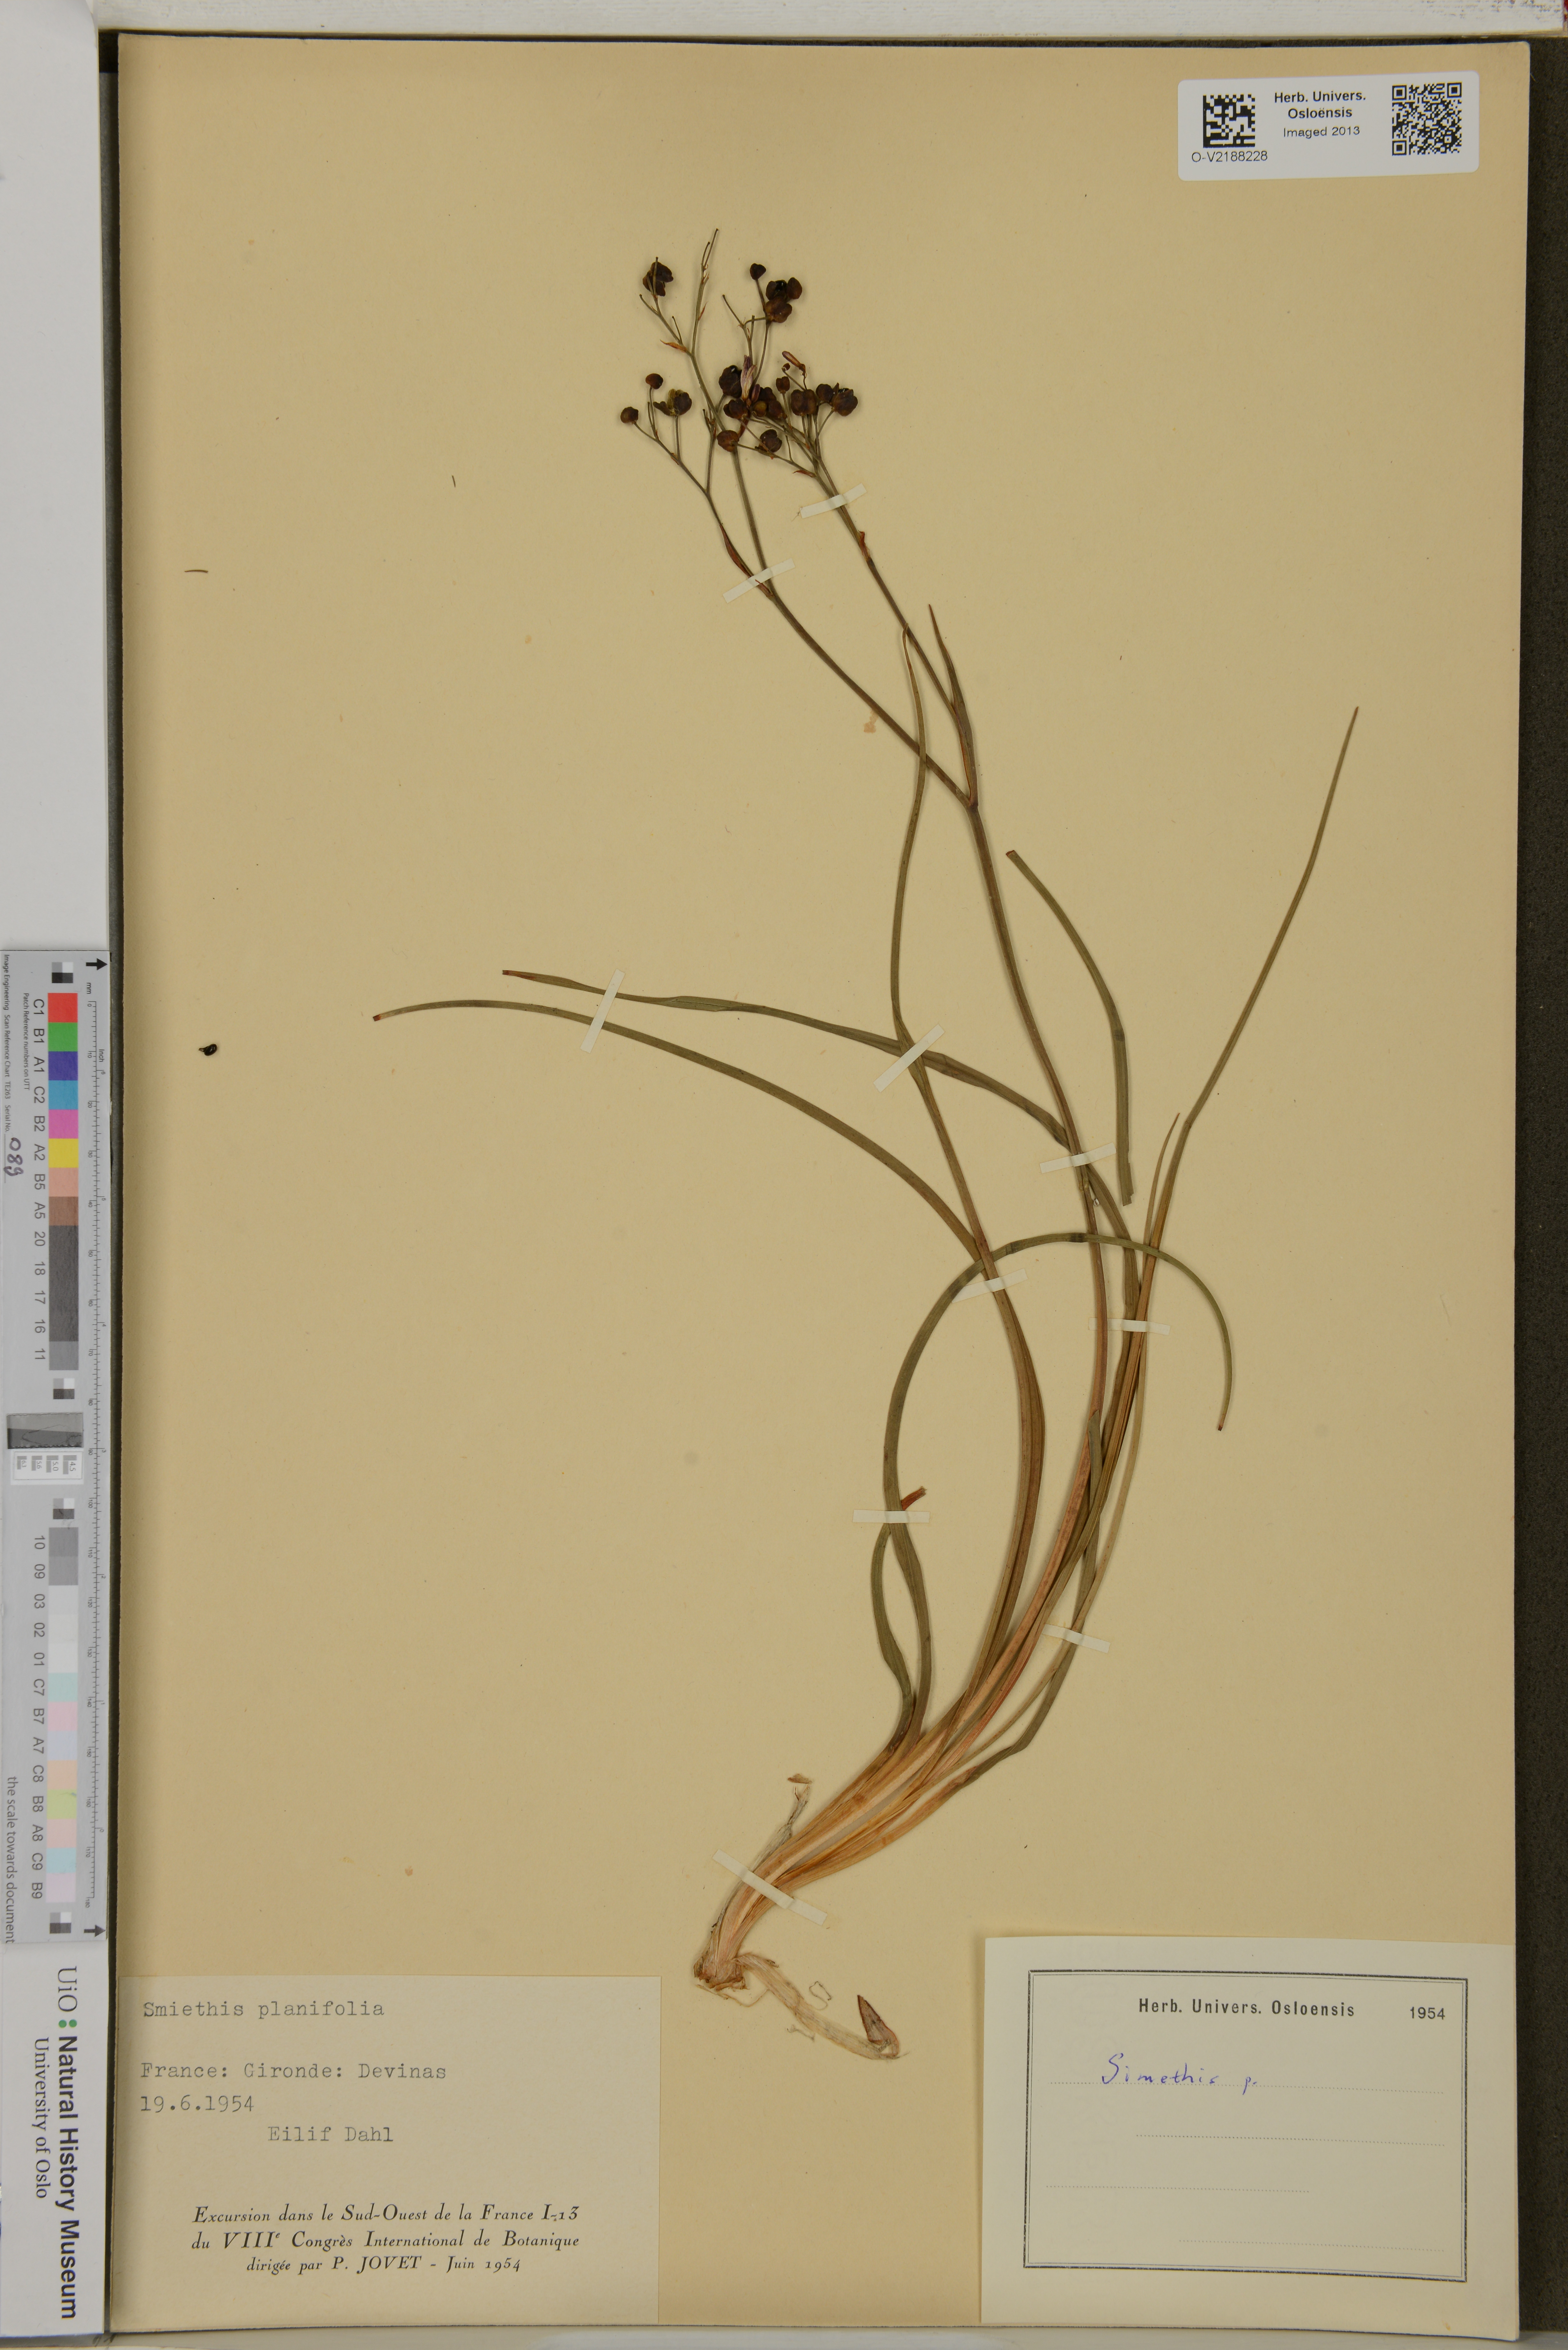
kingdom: Plantae
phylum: Tracheophyta
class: Liliopsida
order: Asparagales
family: Asphodelaceae
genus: Simethis
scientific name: Simethis
